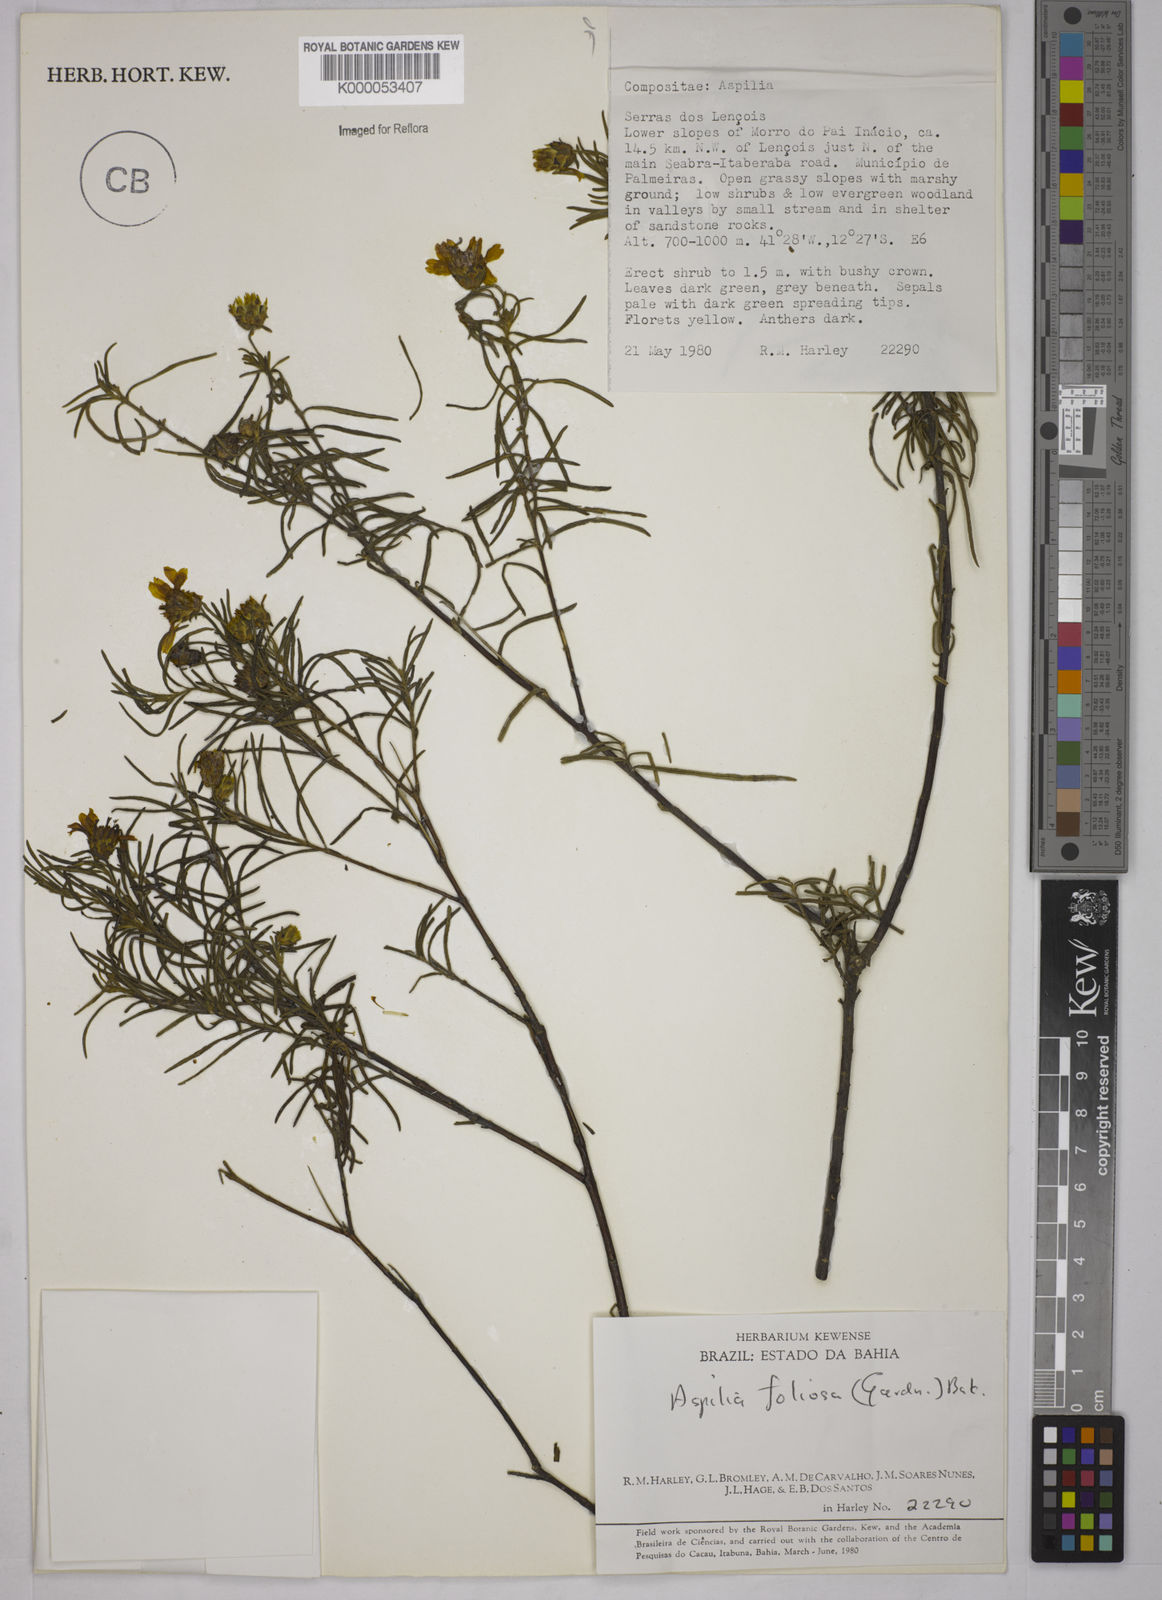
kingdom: Plantae
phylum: Tracheophyta
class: Magnoliopsida
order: Asterales
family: Asteraceae
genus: Aspilia
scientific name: Aspilia
